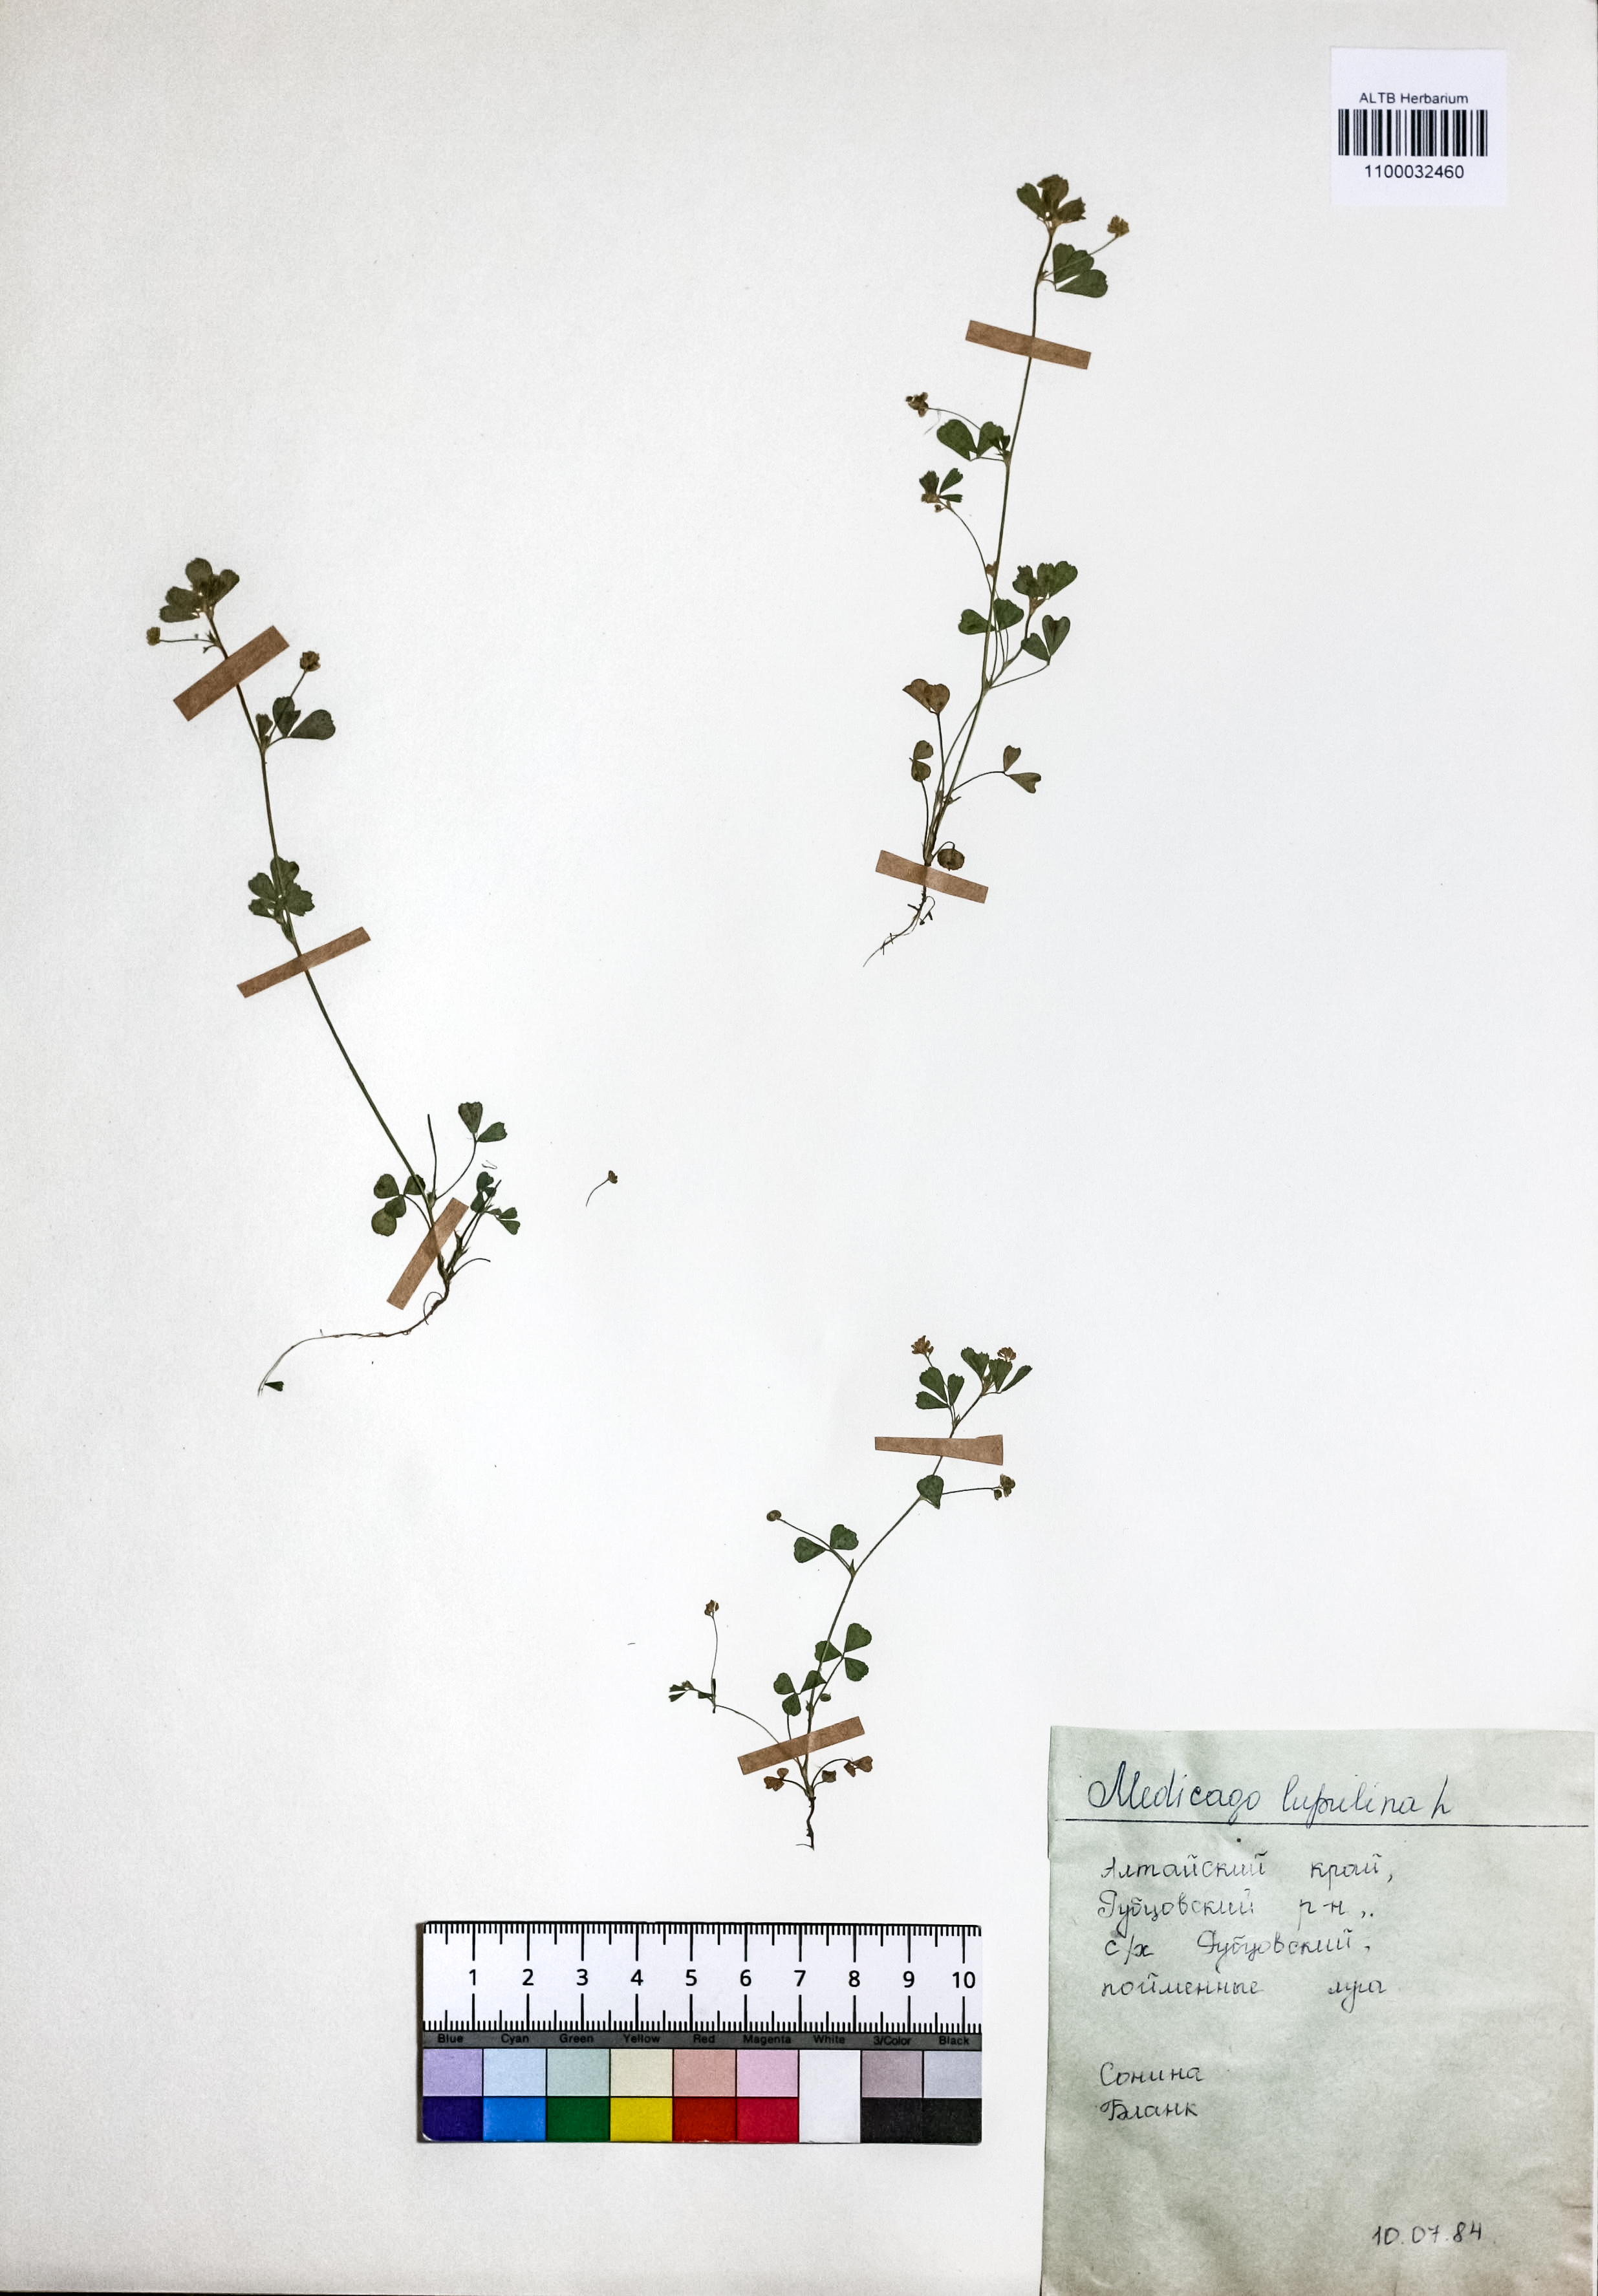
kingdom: Plantae
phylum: Tracheophyta
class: Magnoliopsida
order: Fabales
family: Fabaceae
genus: Medicago
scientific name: Medicago lupulina
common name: Black medick
